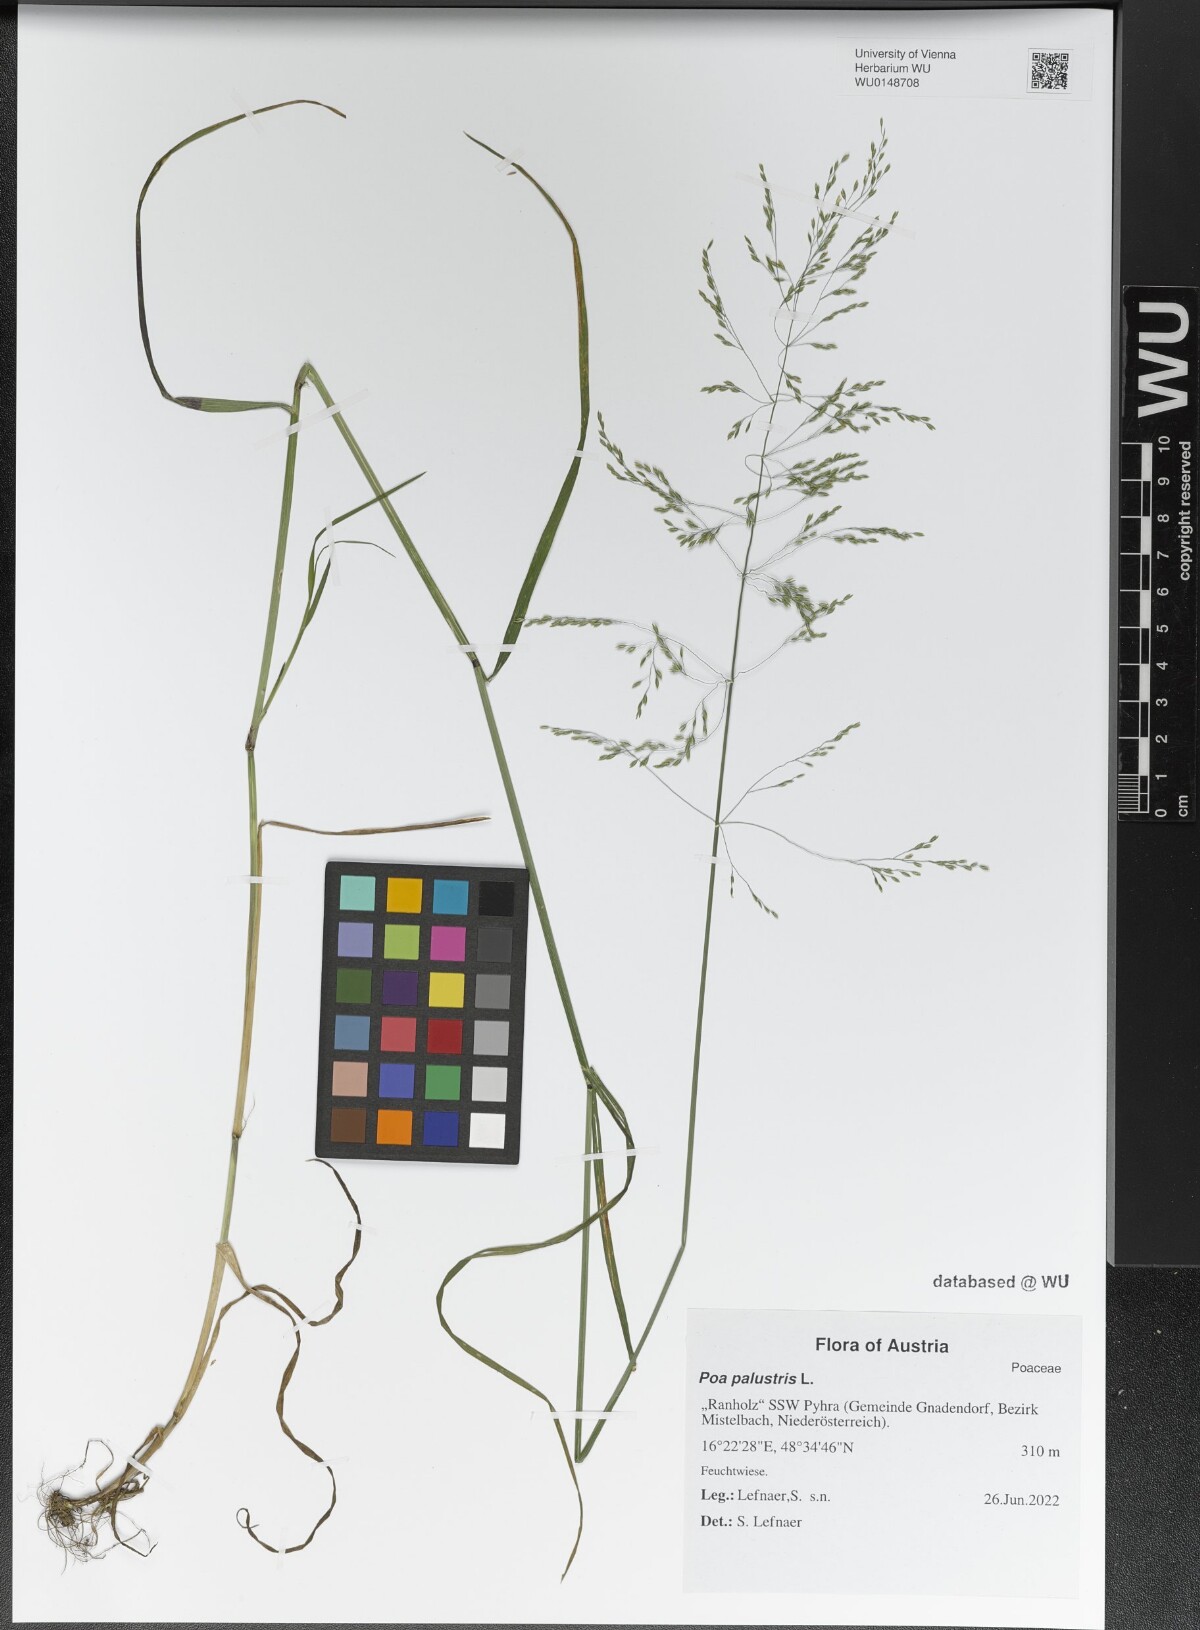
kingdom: Plantae
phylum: Tracheophyta
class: Liliopsida
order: Poales
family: Poaceae
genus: Poa
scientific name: Poa palustris
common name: Swamp meadow-grass
